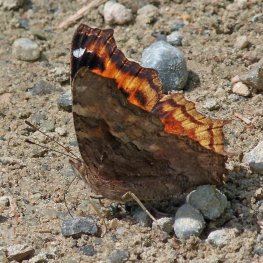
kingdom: Animalia
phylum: Arthropoda
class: Insecta
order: Lepidoptera
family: Nymphalidae
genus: Polygonia
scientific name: Polygonia vaualbum
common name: Compton Tortoiseshell
